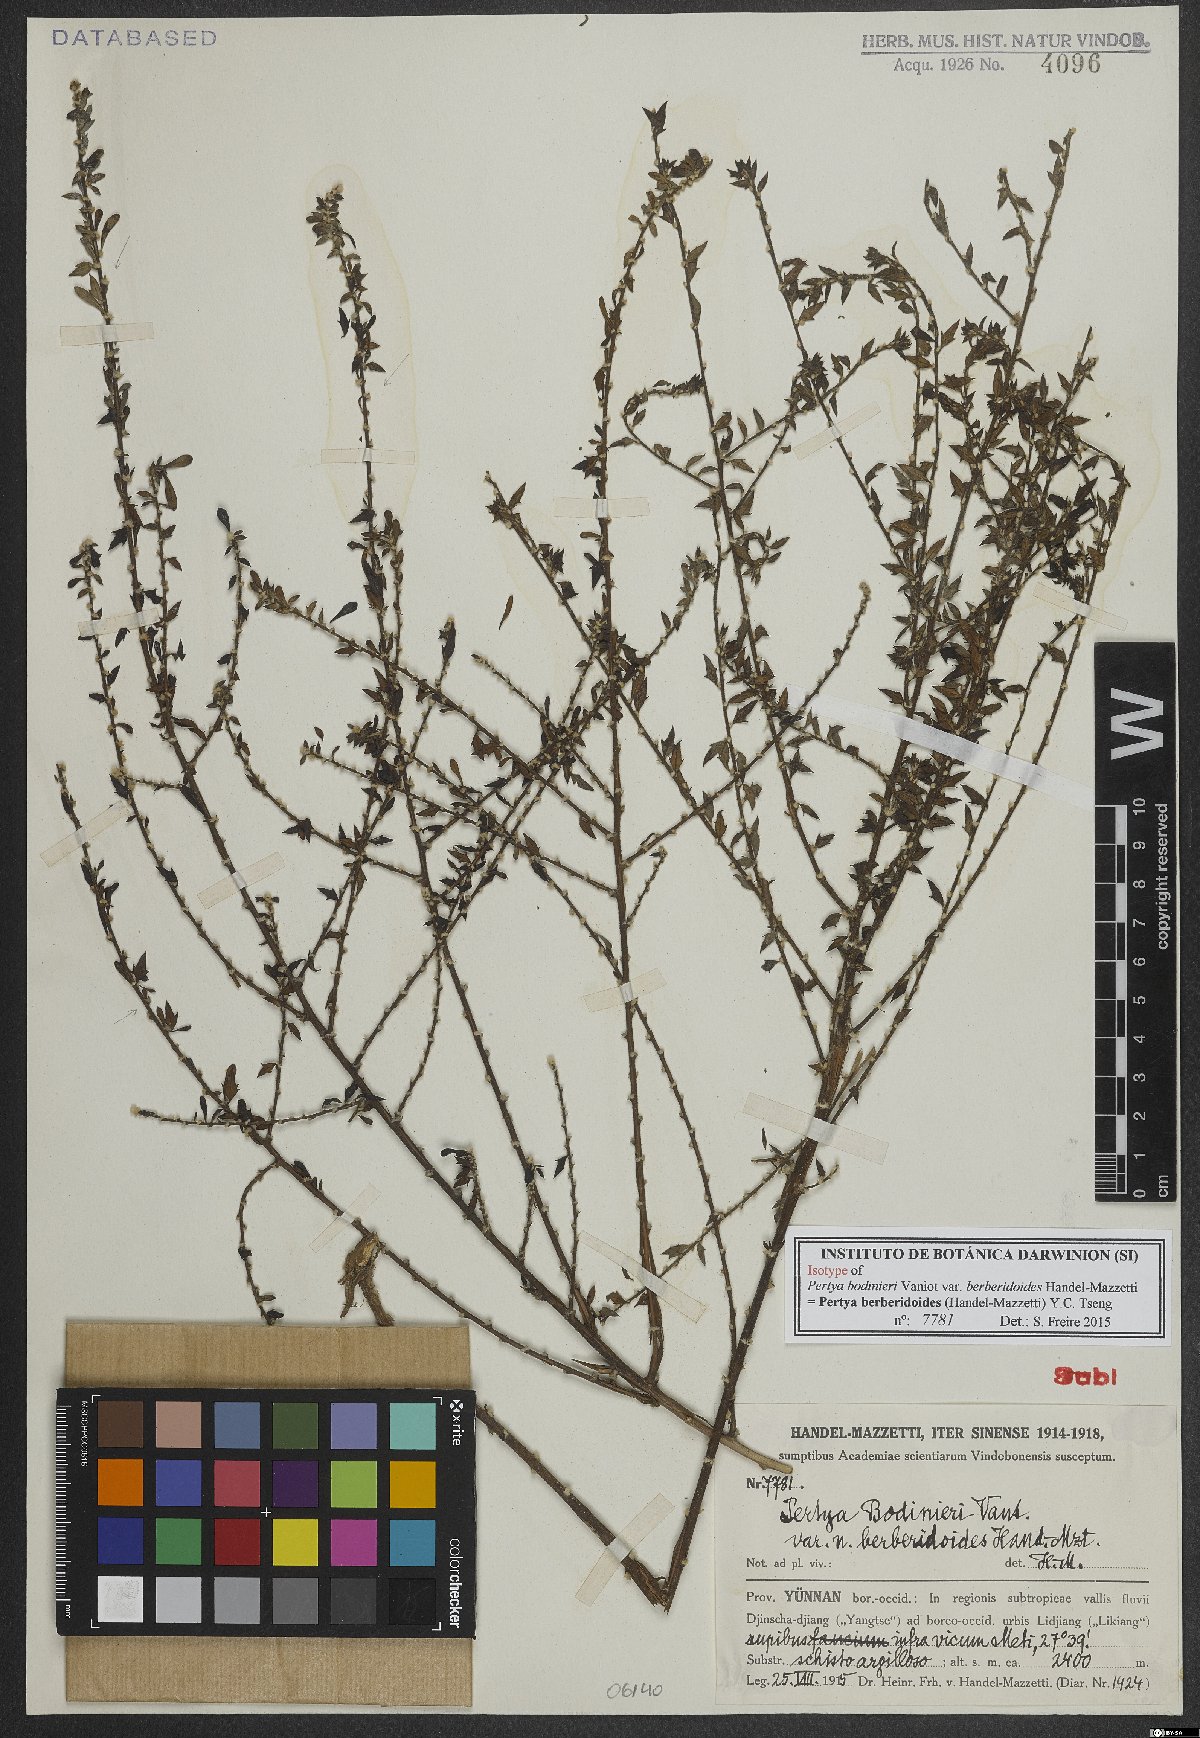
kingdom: Plantae
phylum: Tracheophyta
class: Magnoliopsida
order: Asterales
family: Asteraceae
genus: Pertya
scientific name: Pertya berberidoides
